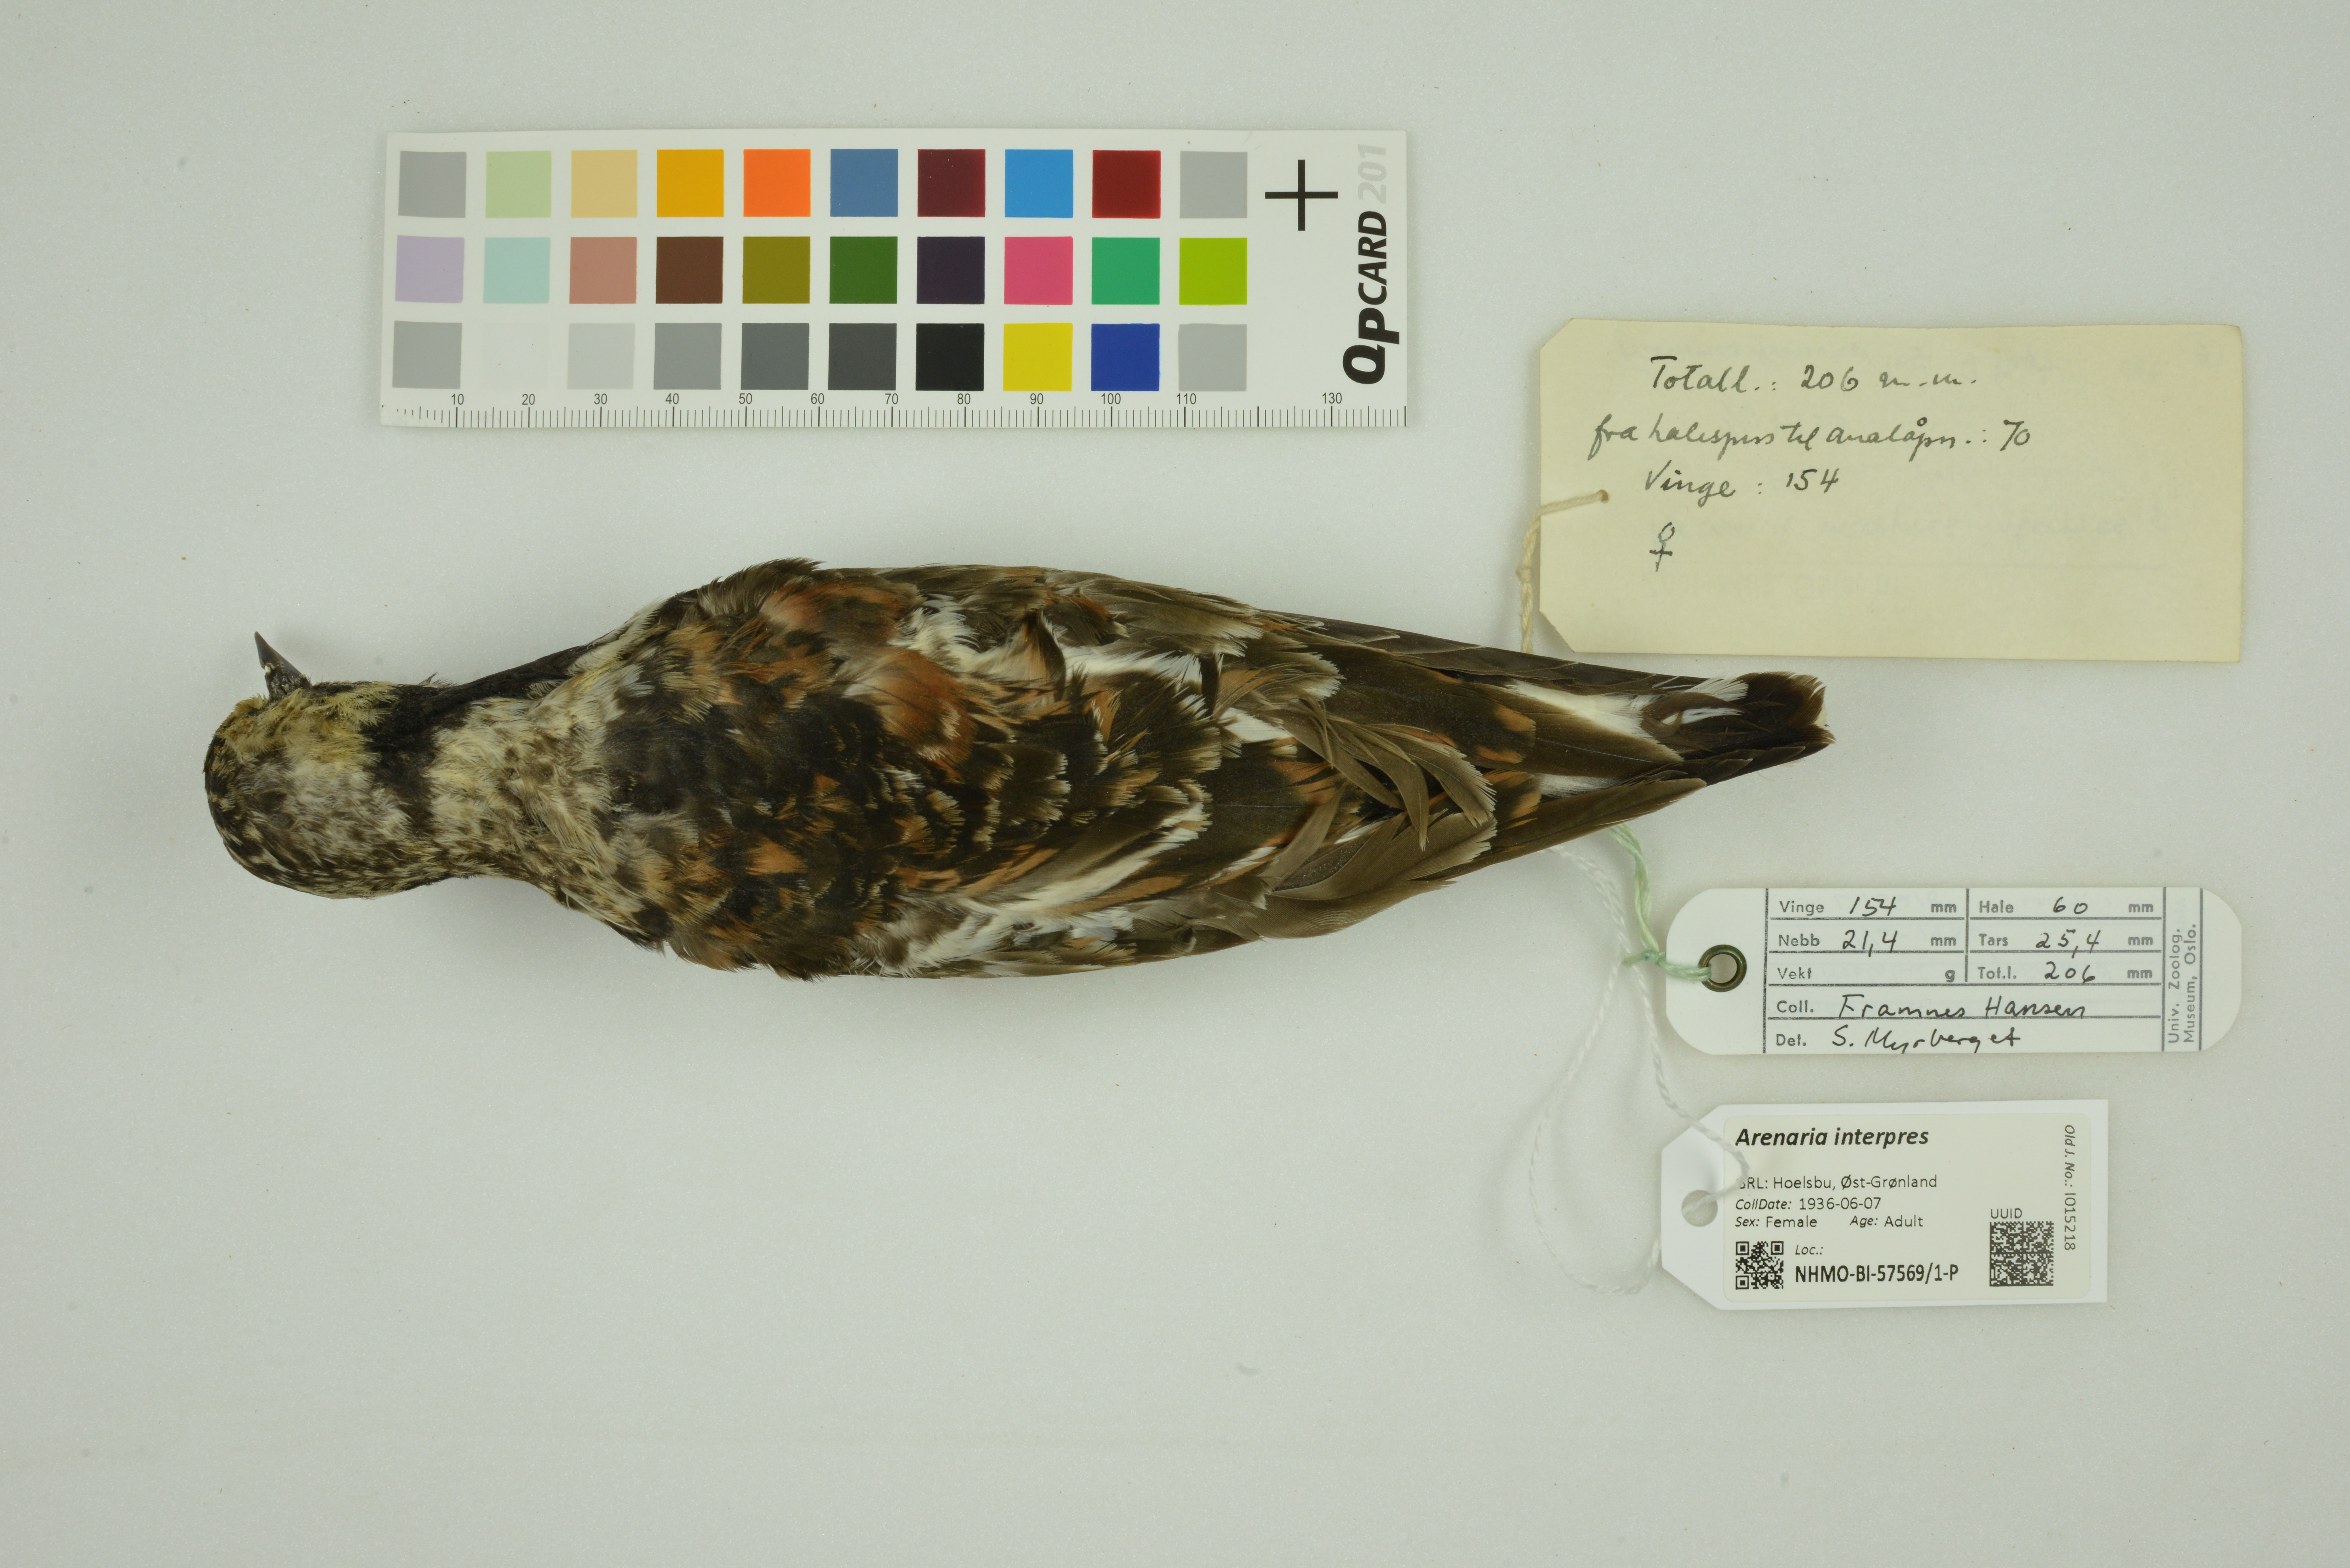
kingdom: Animalia
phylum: Chordata
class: Aves
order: Charadriiformes
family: Scolopacidae
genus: Arenaria
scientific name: Arenaria interpres
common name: Ruddy turnstone
